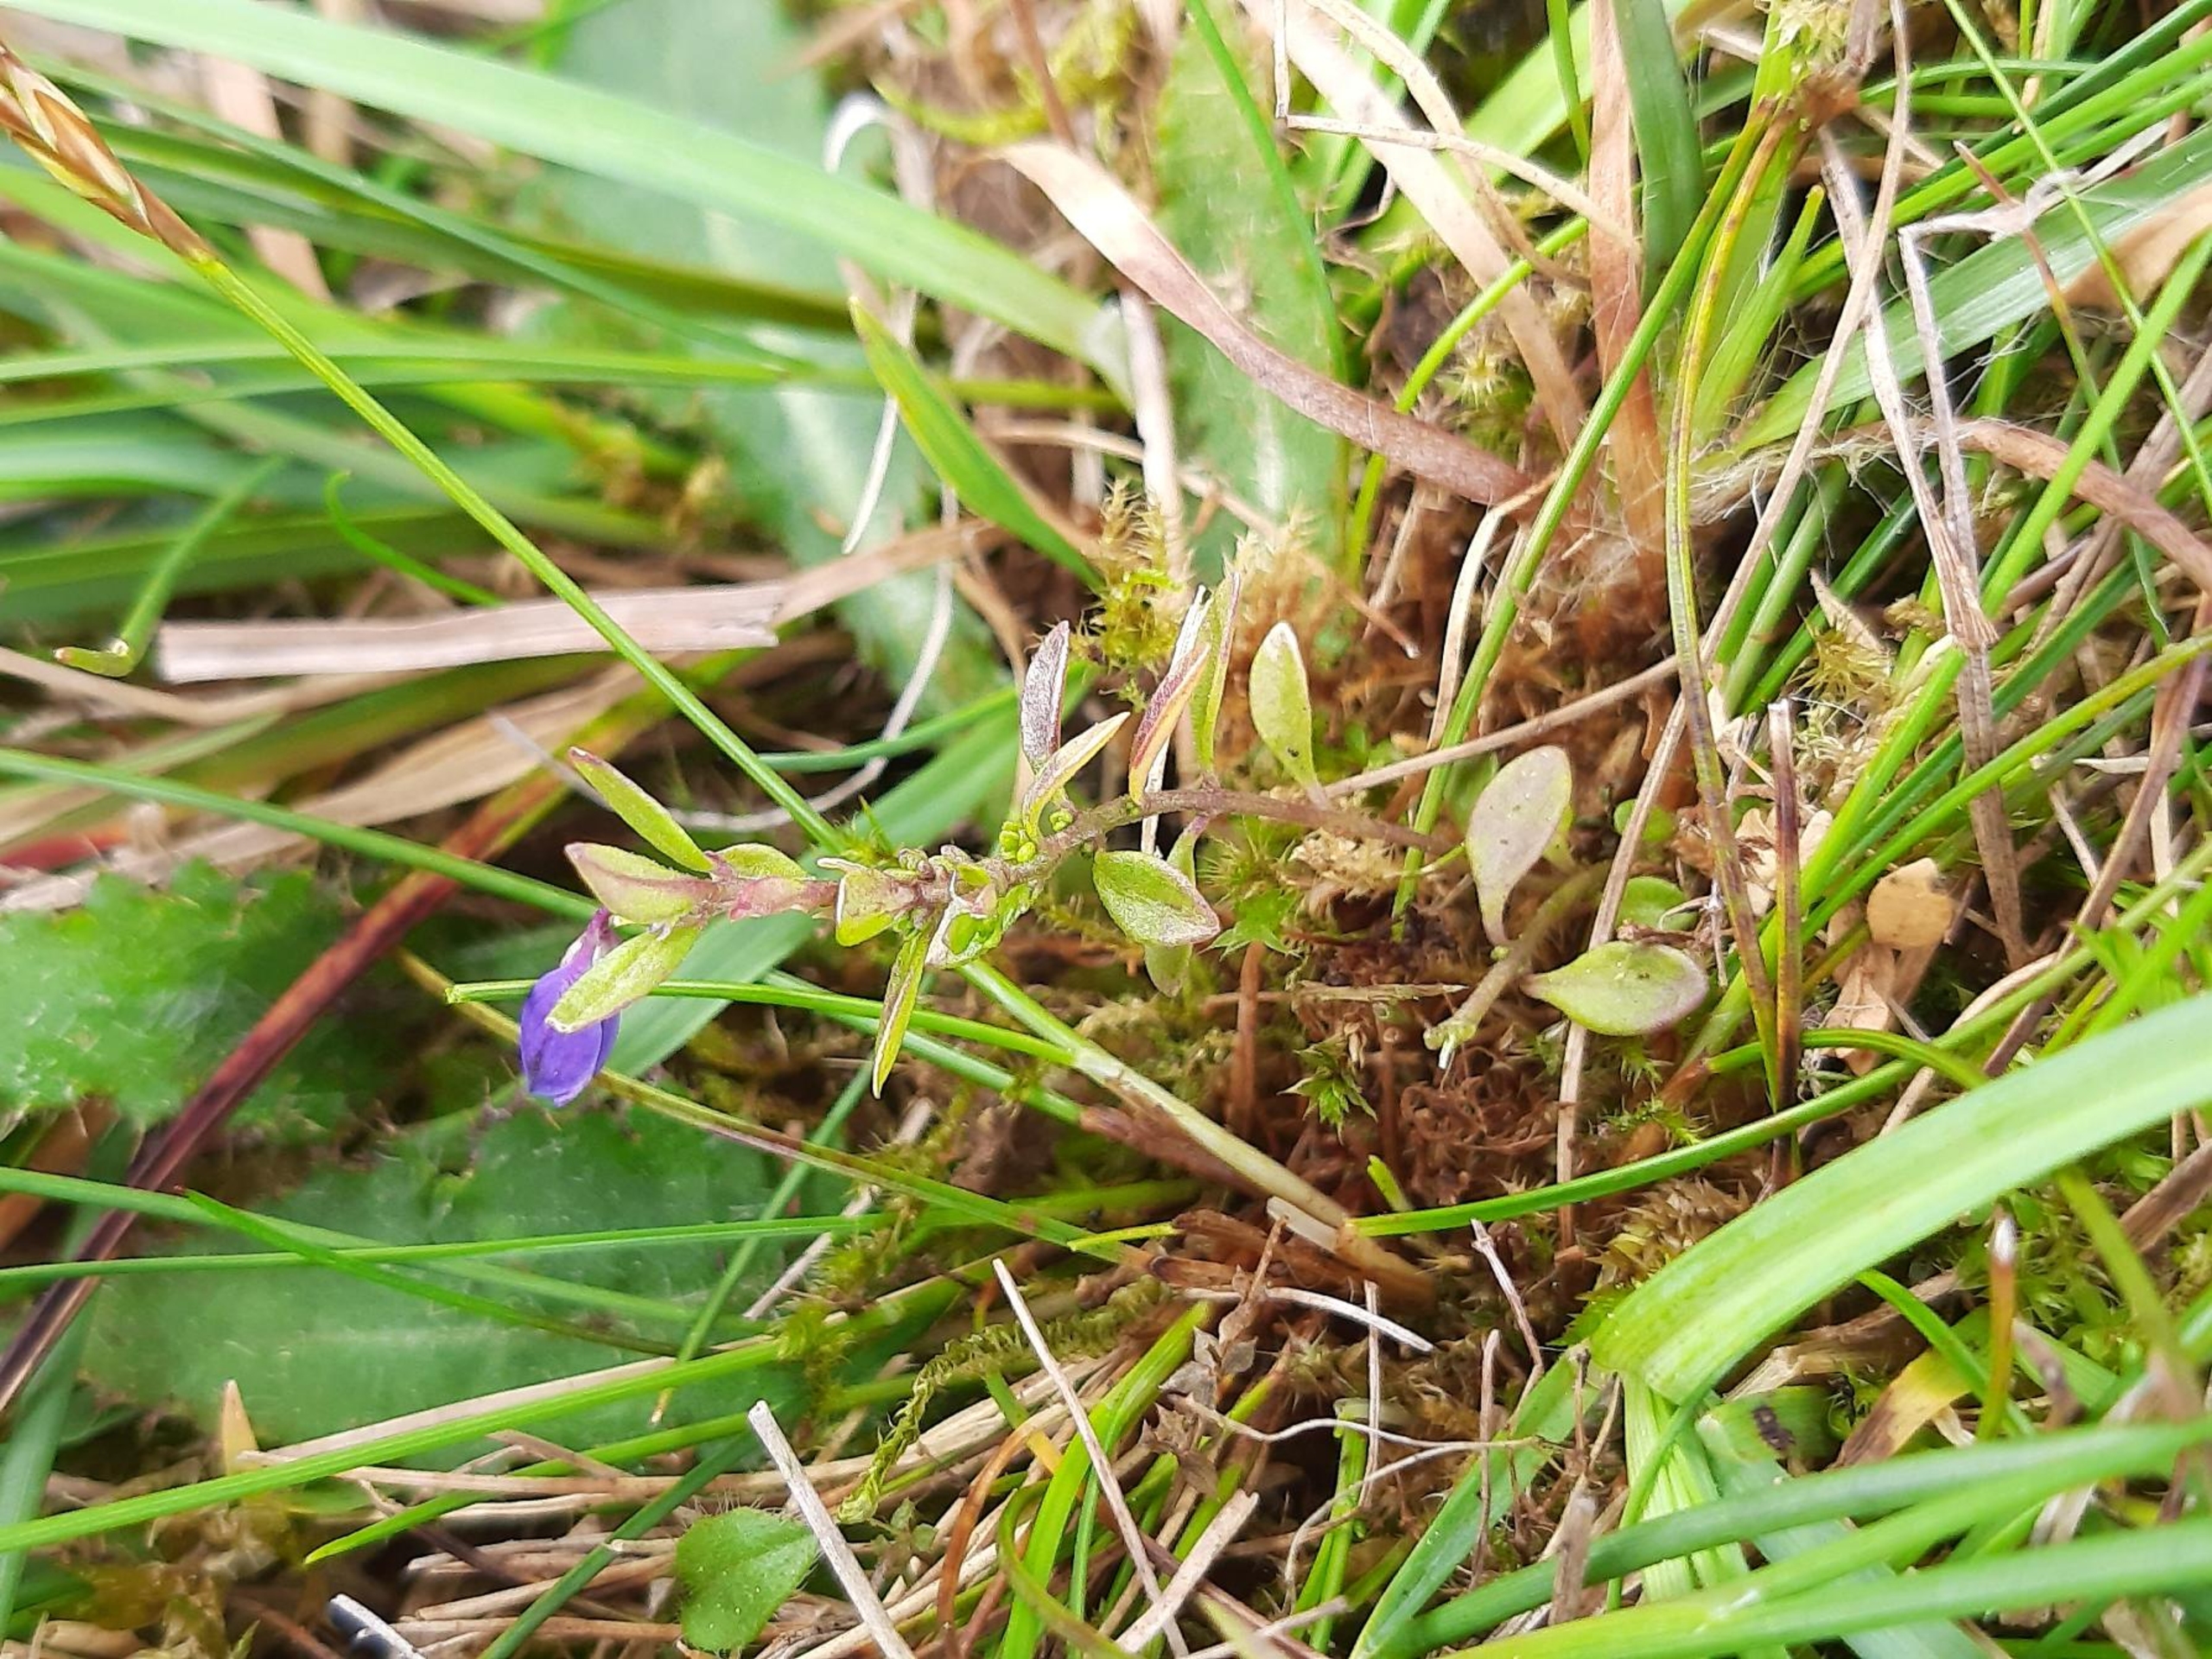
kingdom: Plantae
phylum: Tracheophyta
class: Magnoliopsida
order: Fabales
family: Polygalaceae
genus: Polygala
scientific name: Polygala serpyllifolia
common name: Spæd mælkeurt
